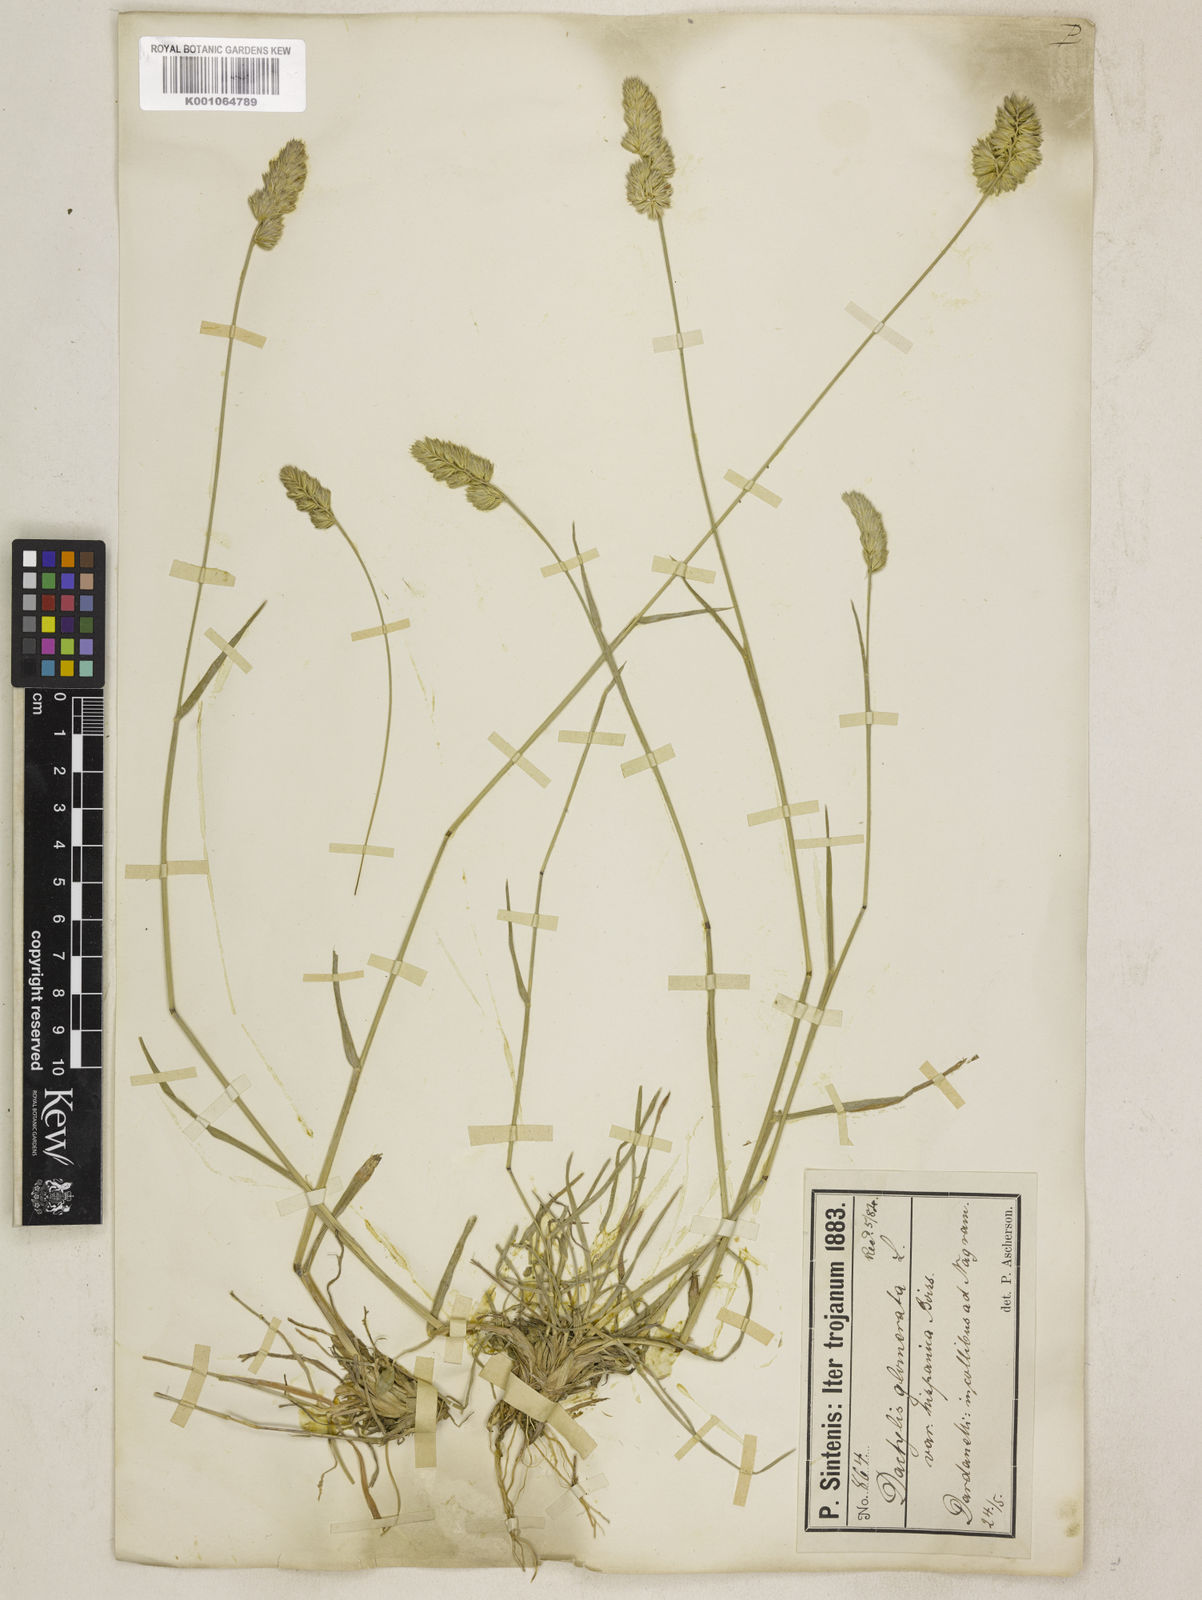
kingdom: Plantae
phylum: Tracheophyta
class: Liliopsida
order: Poales
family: Poaceae
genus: Dactylis
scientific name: Dactylis glomerata
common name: Orchardgrass
